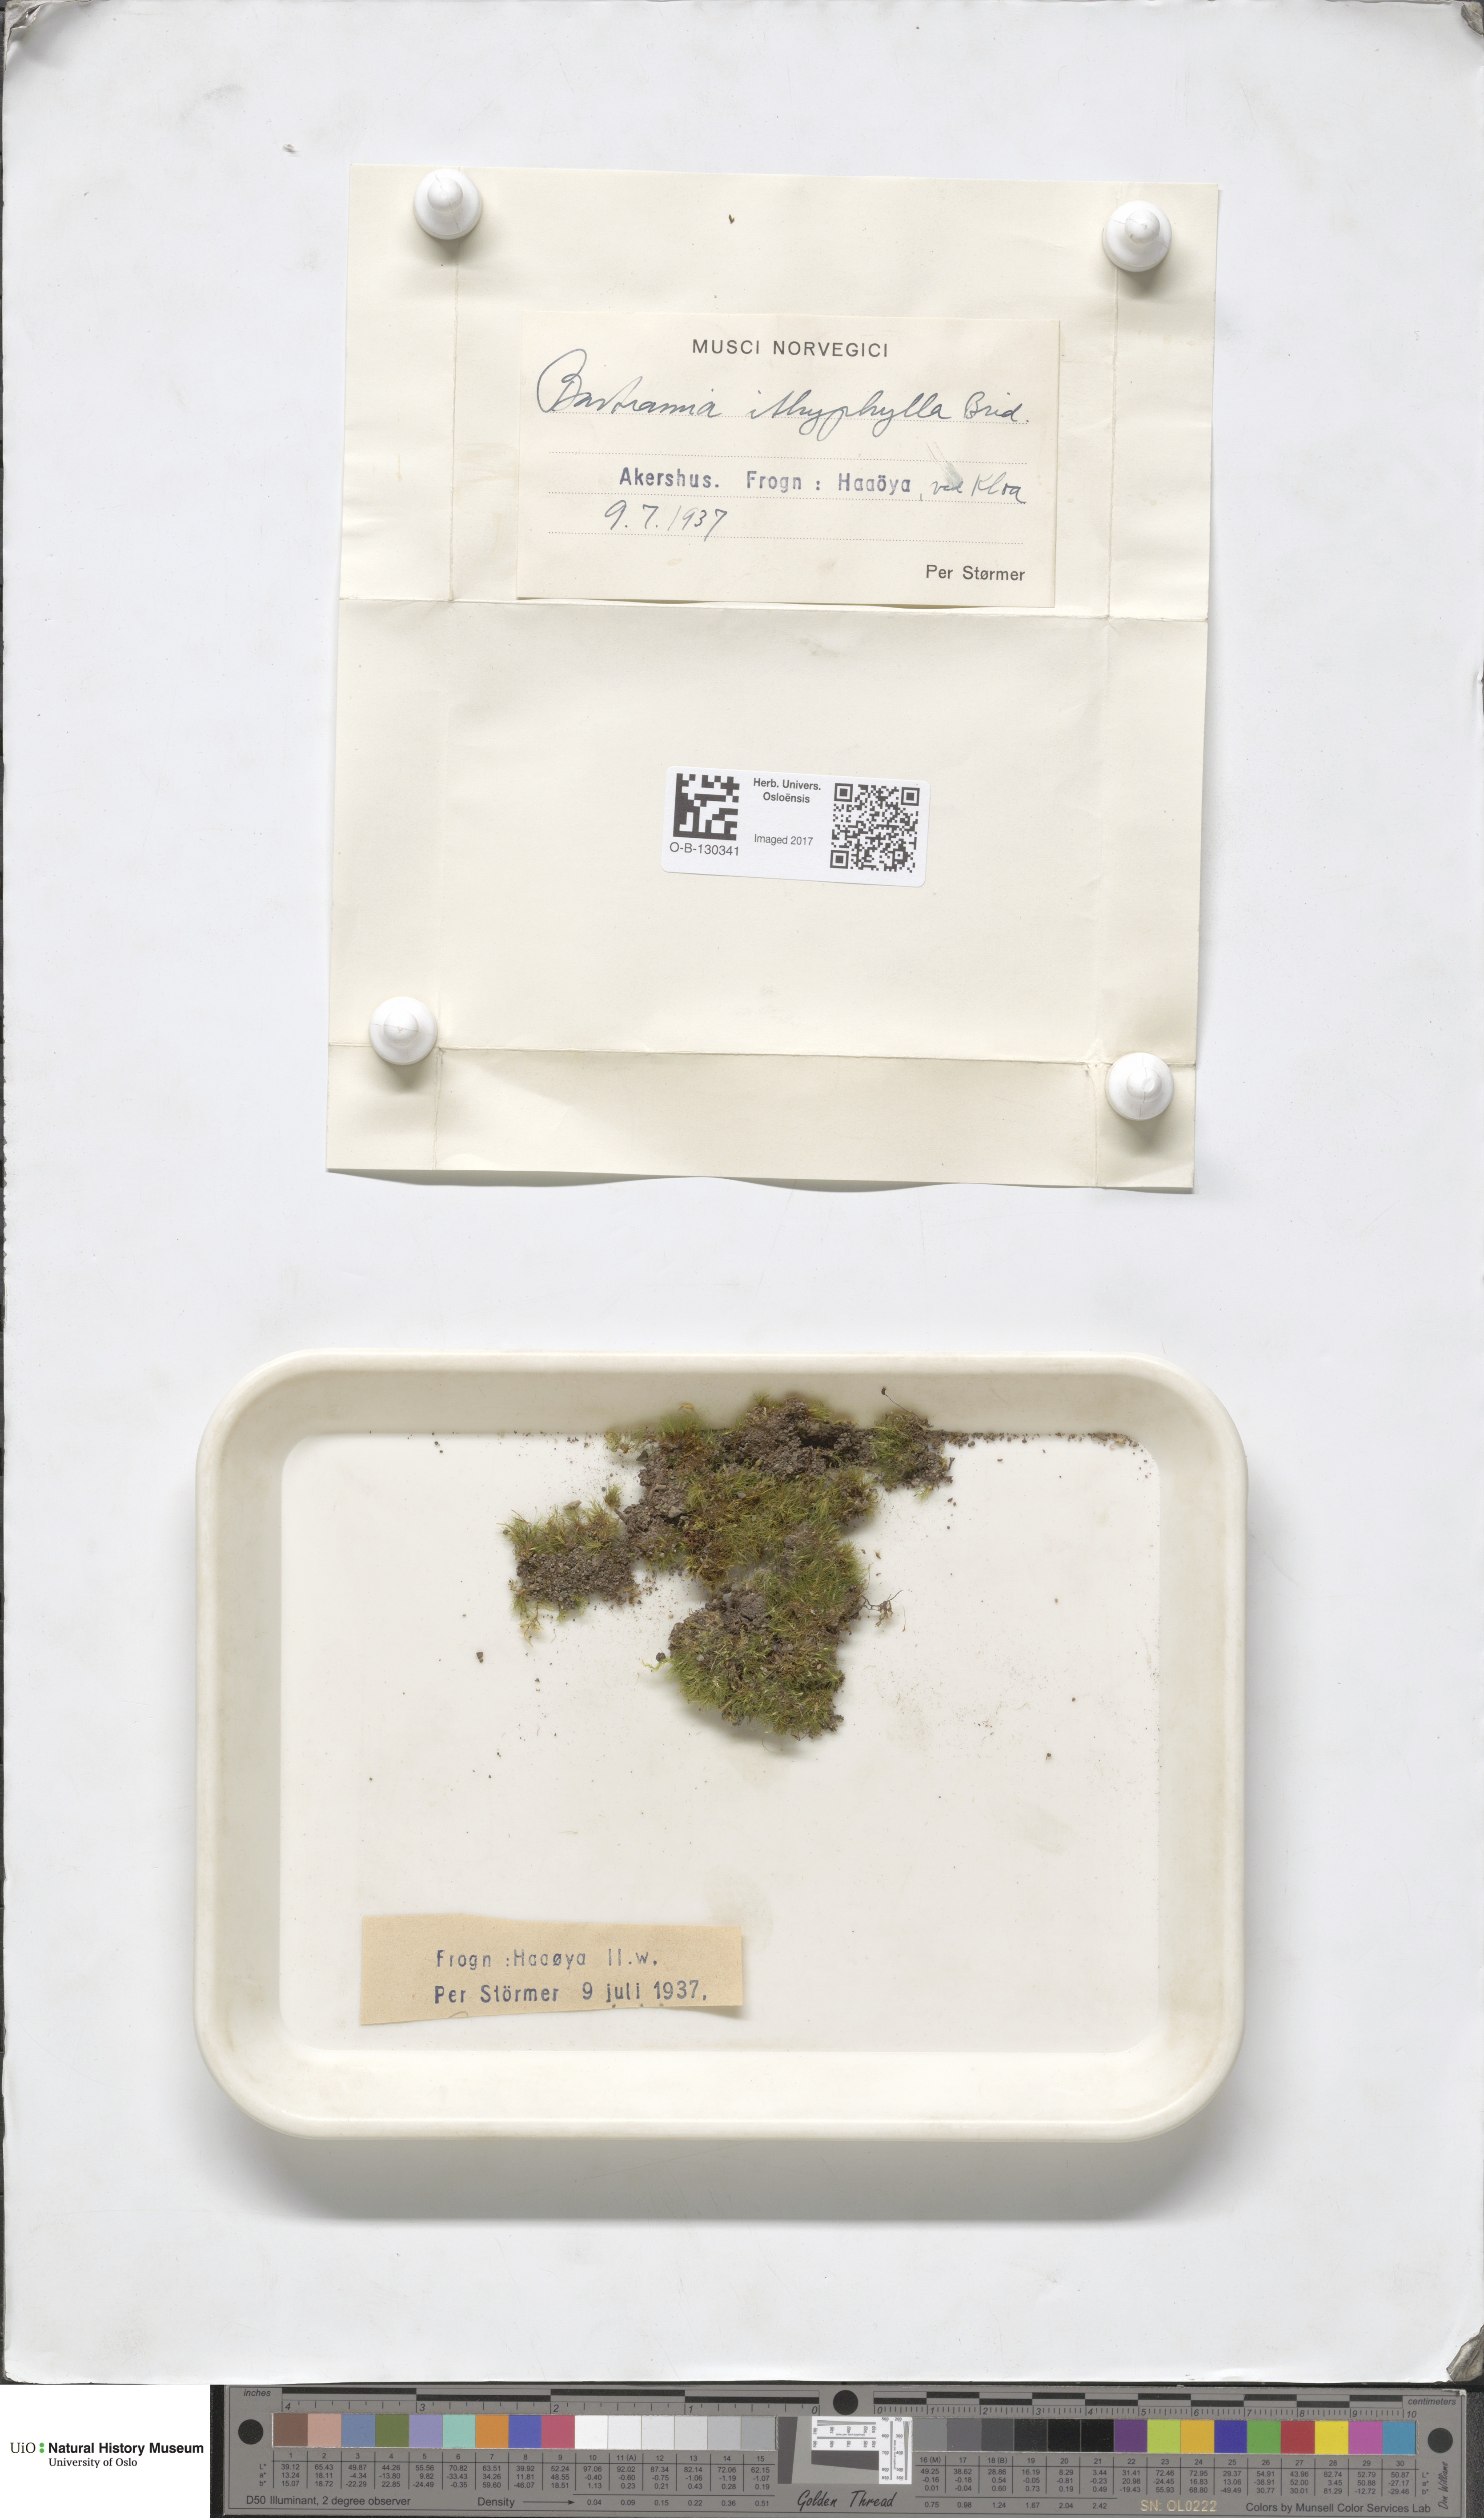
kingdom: Plantae
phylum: Bryophyta
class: Bryopsida
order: Bartramiales
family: Bartramiaceae
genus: Bartramia
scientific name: Bartramia ithyphylla
